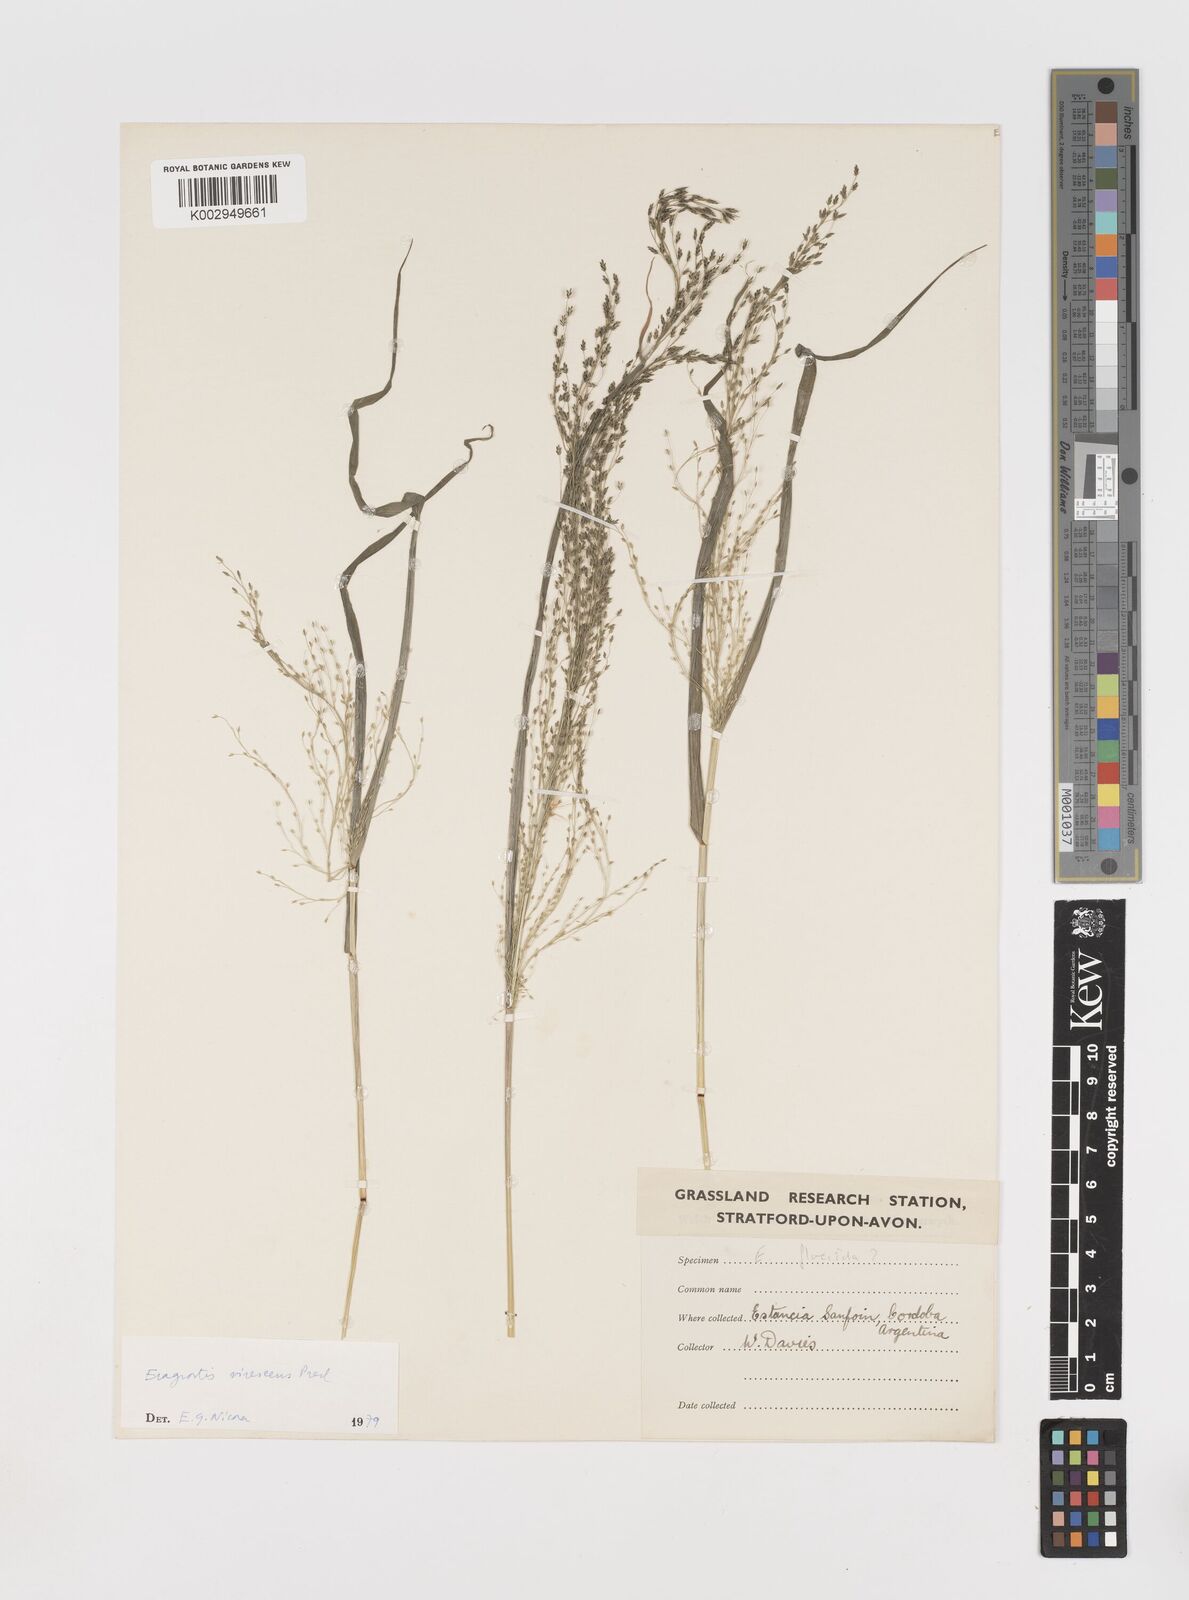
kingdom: Plantae
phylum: Tracheophyta
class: Liliopsida
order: Poales
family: Poaceae
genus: Eragrostis
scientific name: Eragrostis mexicana
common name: Mexican love grass
